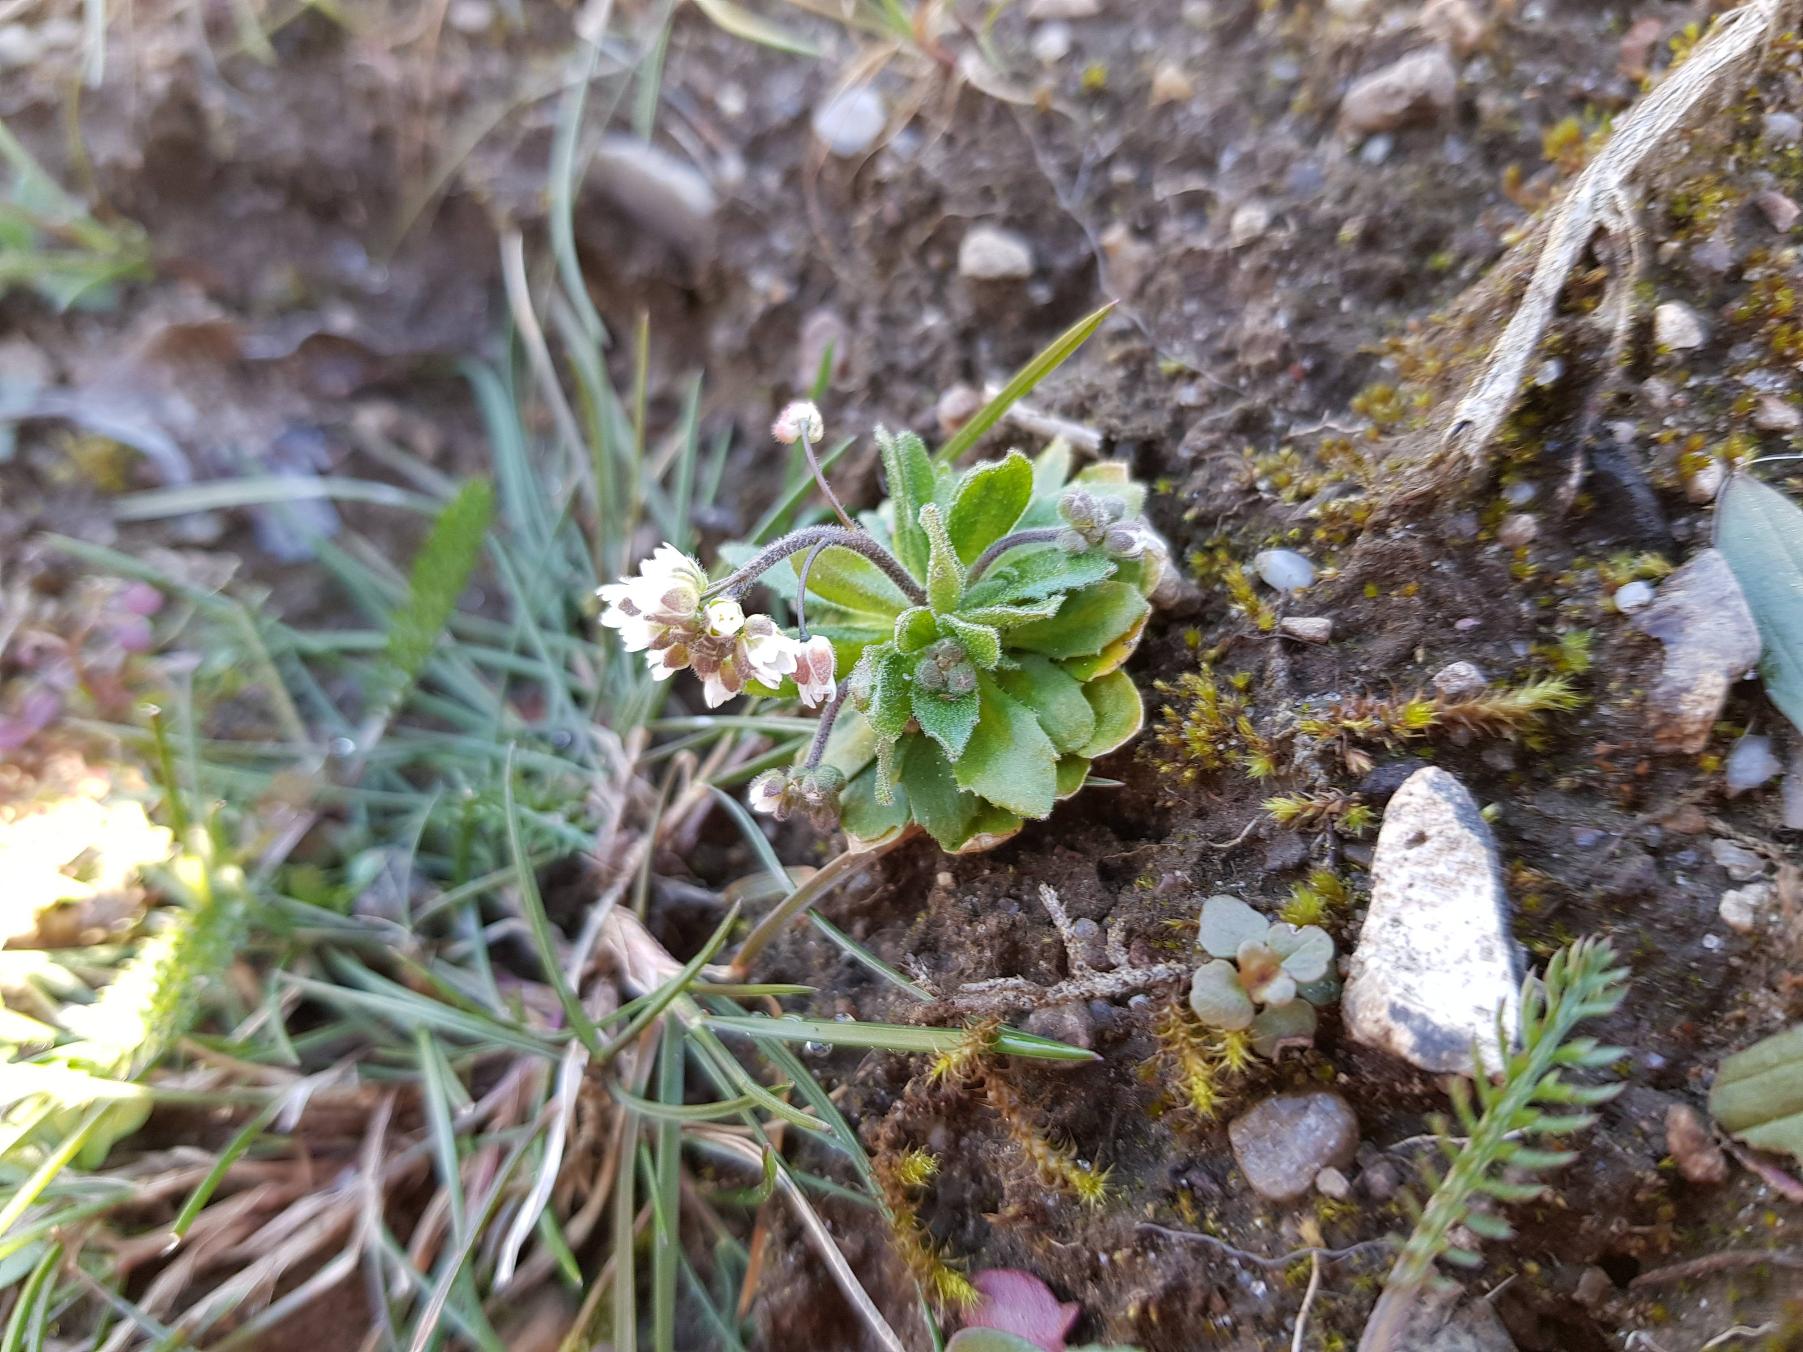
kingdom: Plantae
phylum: Tracheophyta
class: Magnoliopsida
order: Brassicales
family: Brassicaceae
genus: Draba
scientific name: Draba verna
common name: Vår-gæslingeblomst
